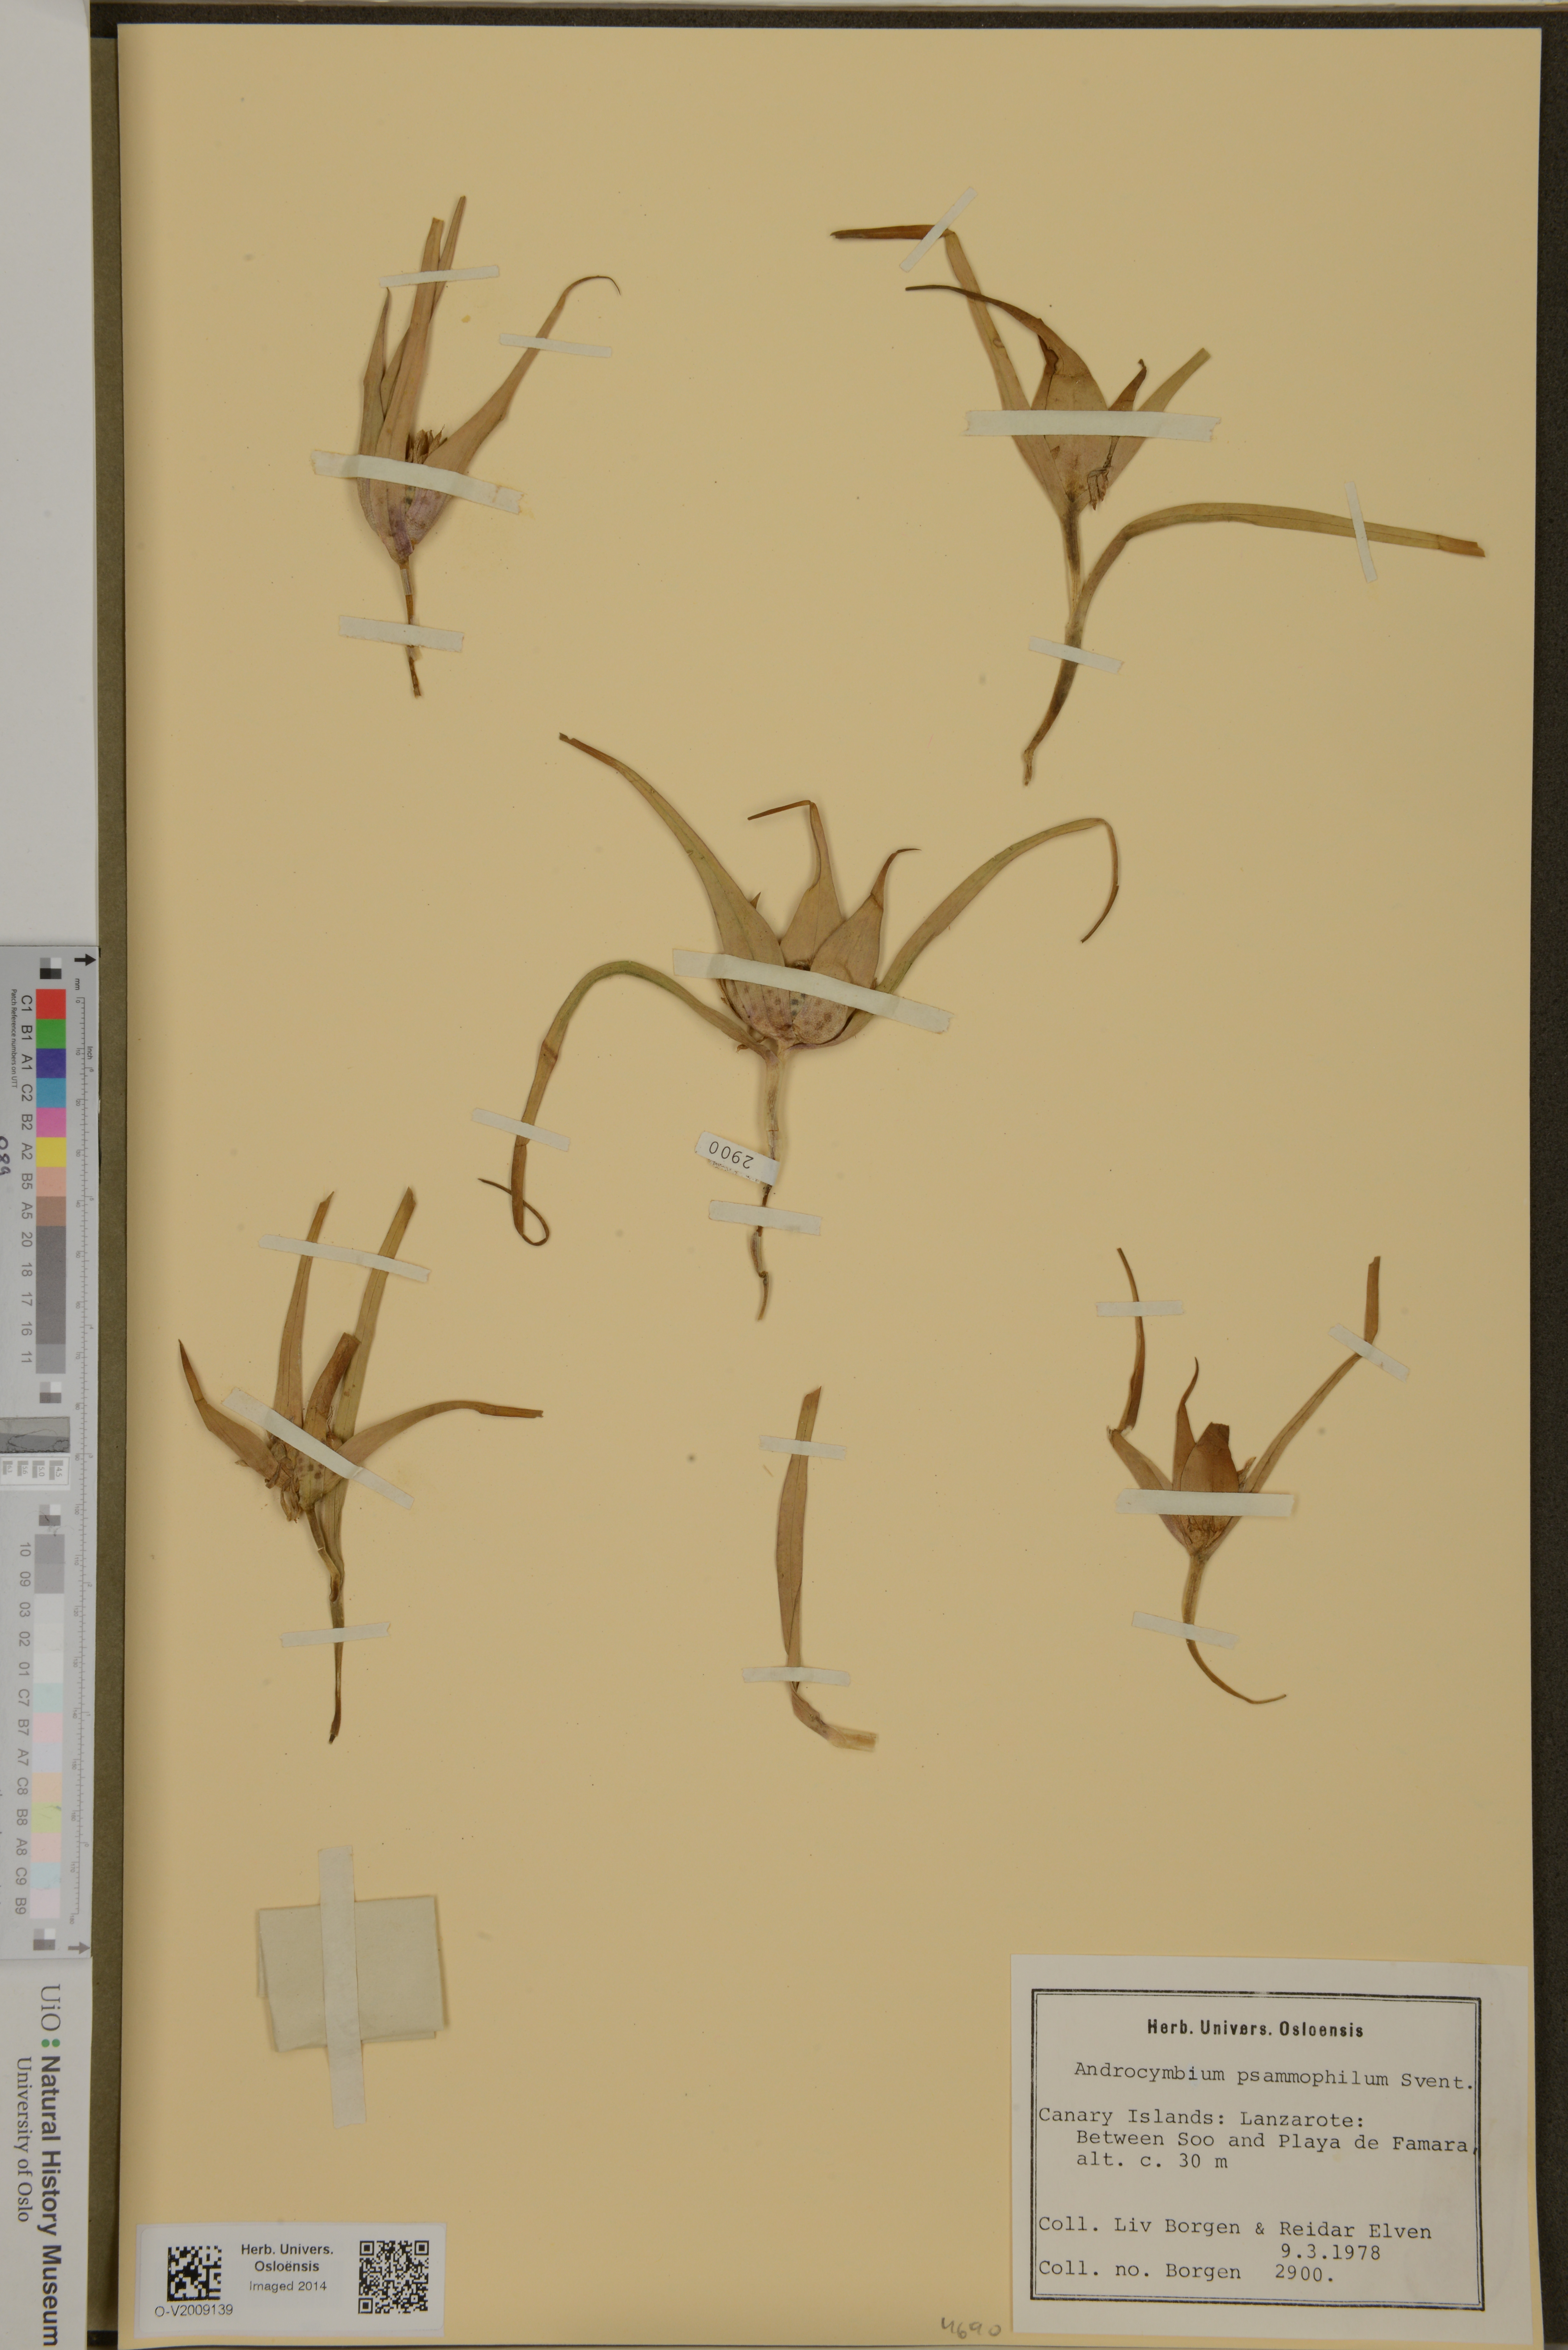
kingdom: Plantae
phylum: Tracheophyta
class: Liliopsida
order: Liliales
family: Colchicaceae
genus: Colchicum
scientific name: Colchicum psammophilum
